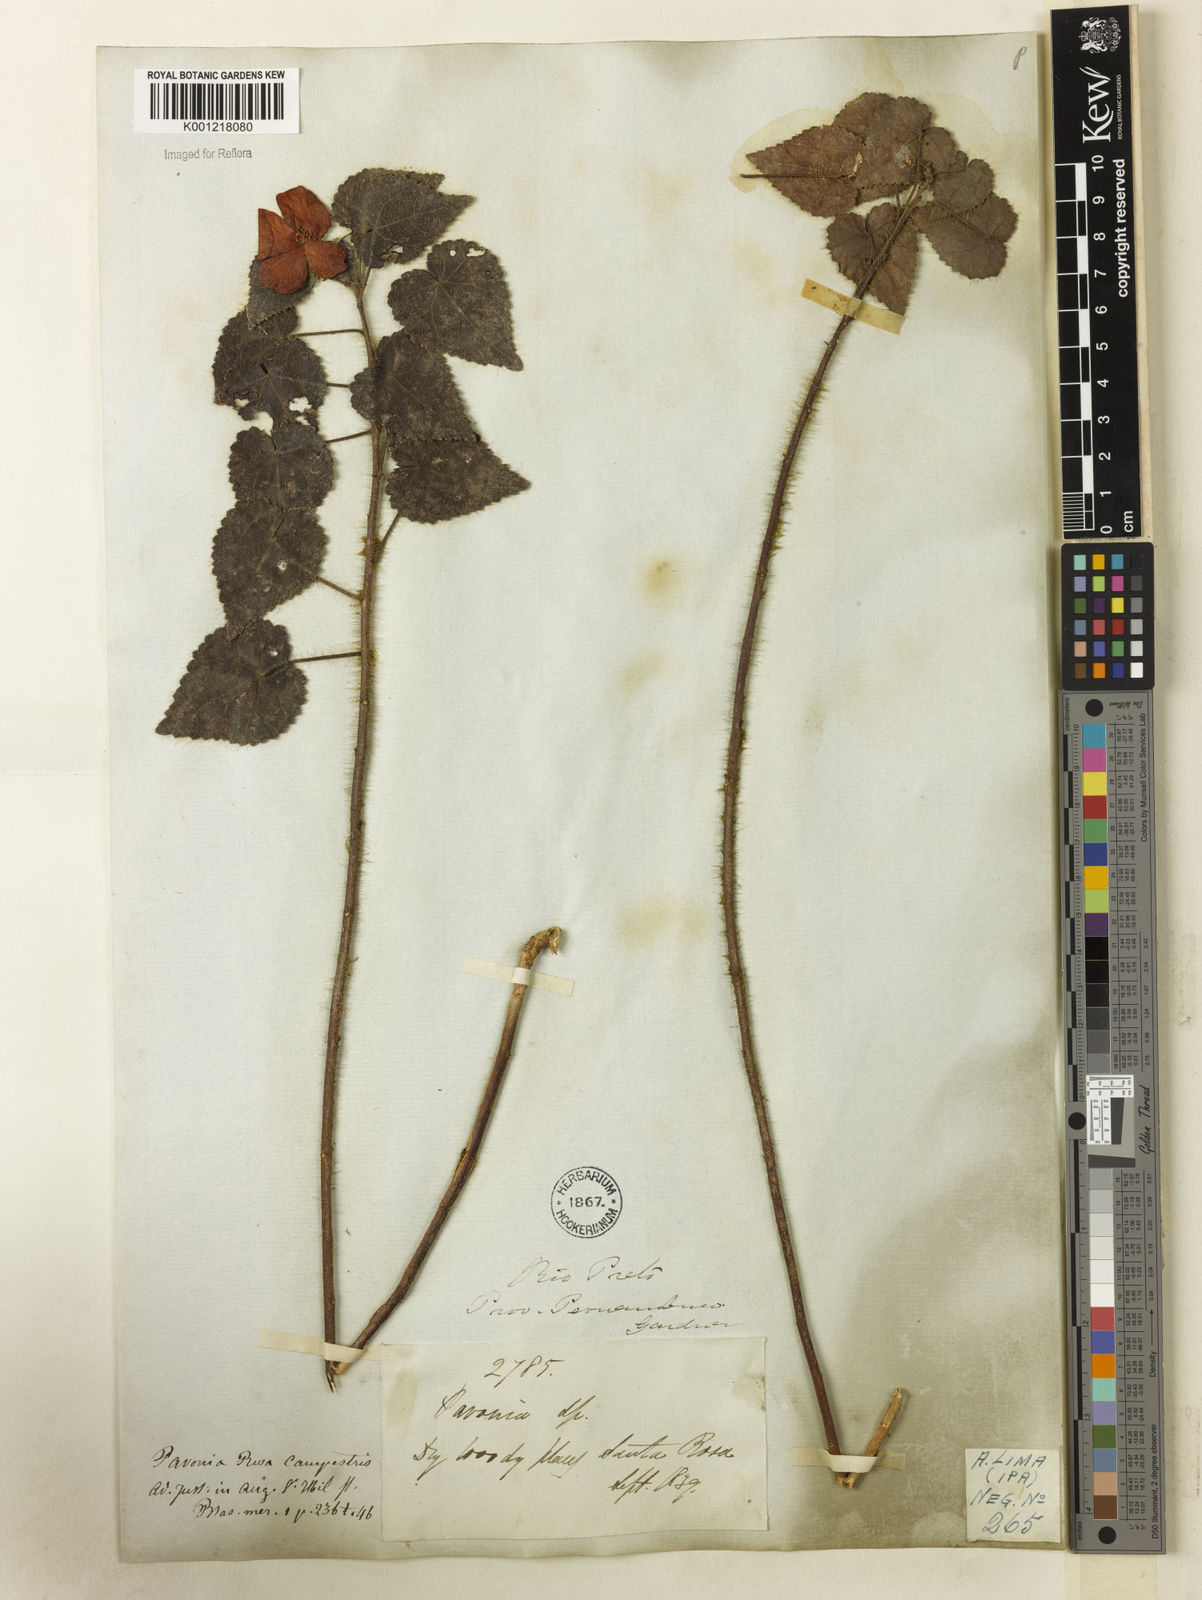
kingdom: Plantae
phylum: Tracheophyta
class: Magnoliopsida
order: Malvales
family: Malvaceae
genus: Pavonia
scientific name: Pavonia rosa-campestris
